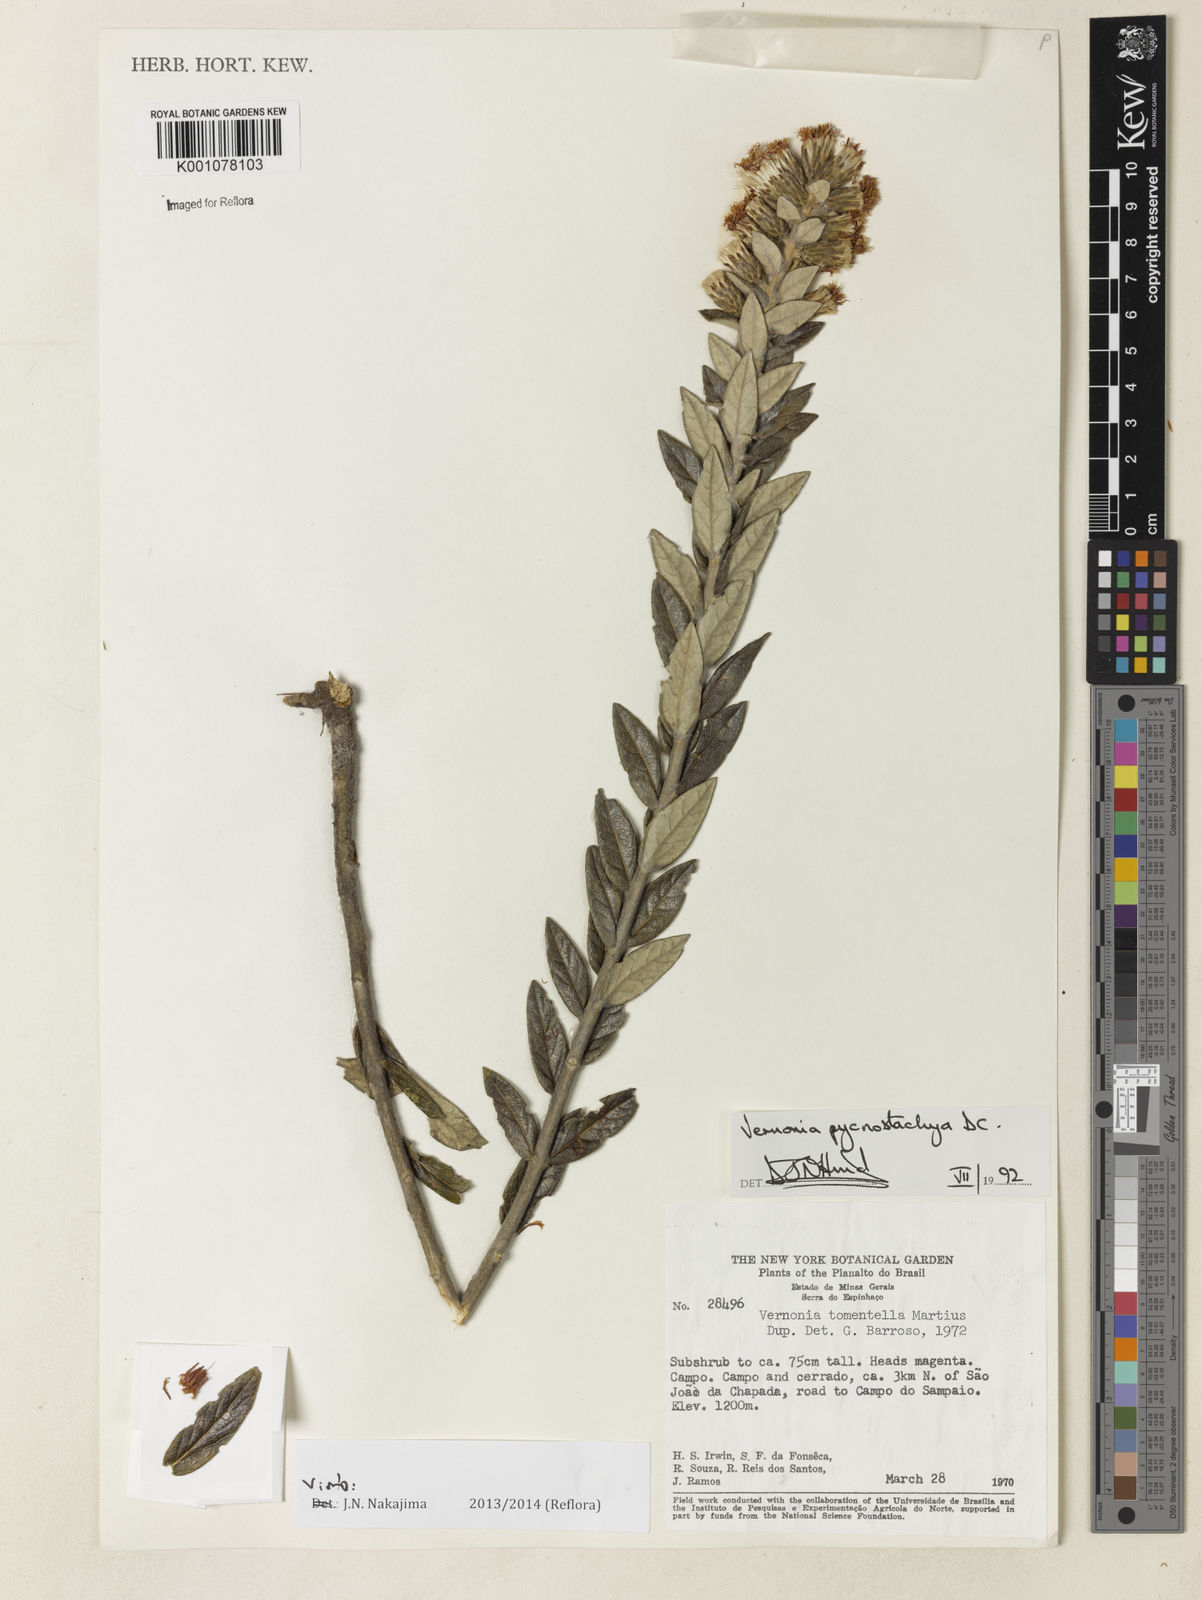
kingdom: Plantae
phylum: Tracheophyta
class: Magnoliopsida
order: Asterales
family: Asteraceae
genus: Lessingianthus
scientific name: Lessingianthus pycnostachyus
